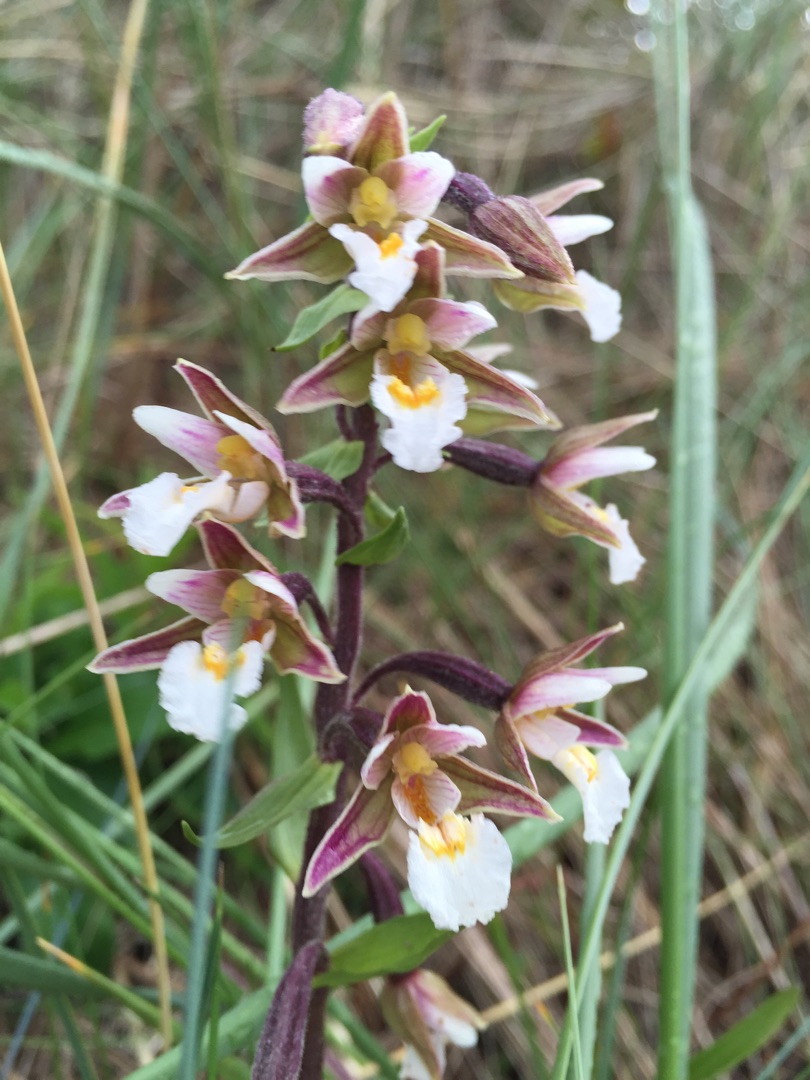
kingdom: Plantae
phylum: Tracheophyta
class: Liliopsida
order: Asparagales
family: Orchidaceae
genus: Epipactis
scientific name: Epipactis palustris
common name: Sump-hullæbe
